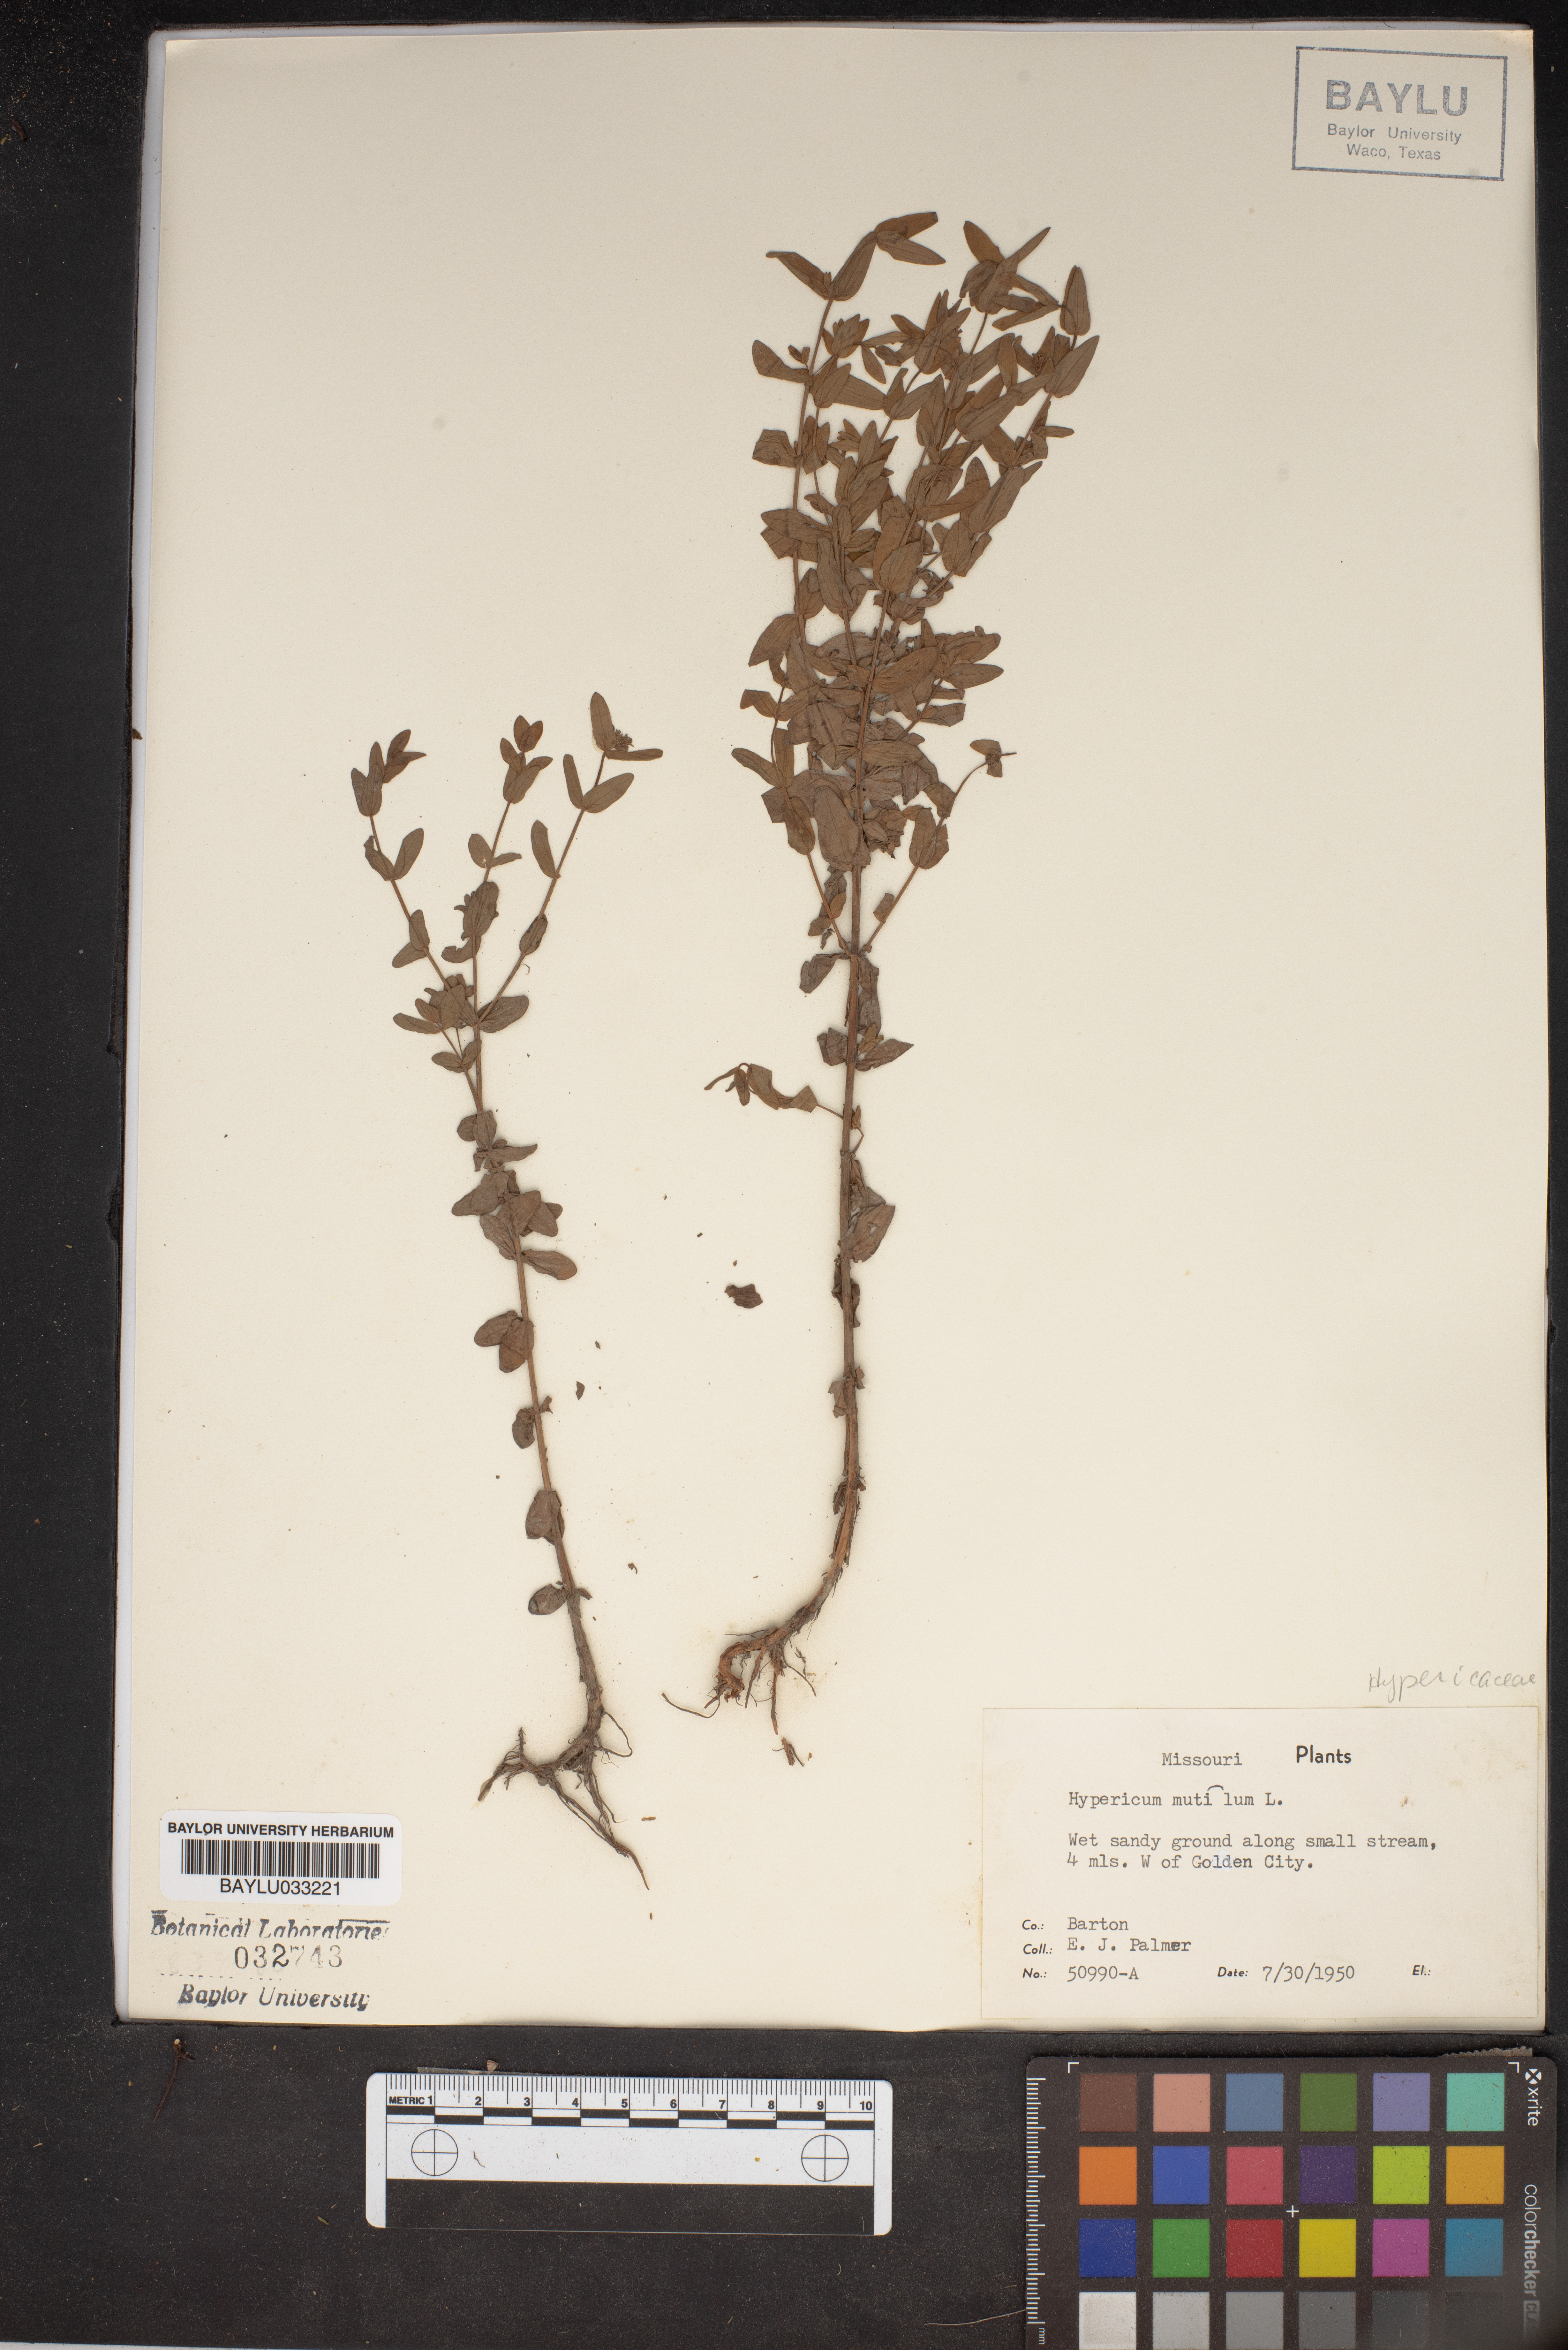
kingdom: Plantae
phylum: Tracheophyta
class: Magnoliopsida
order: Malpighiales
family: Hypericaceae
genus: Hypericum
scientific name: Hypericum mutilum
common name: Dwarf st. john's-wort
